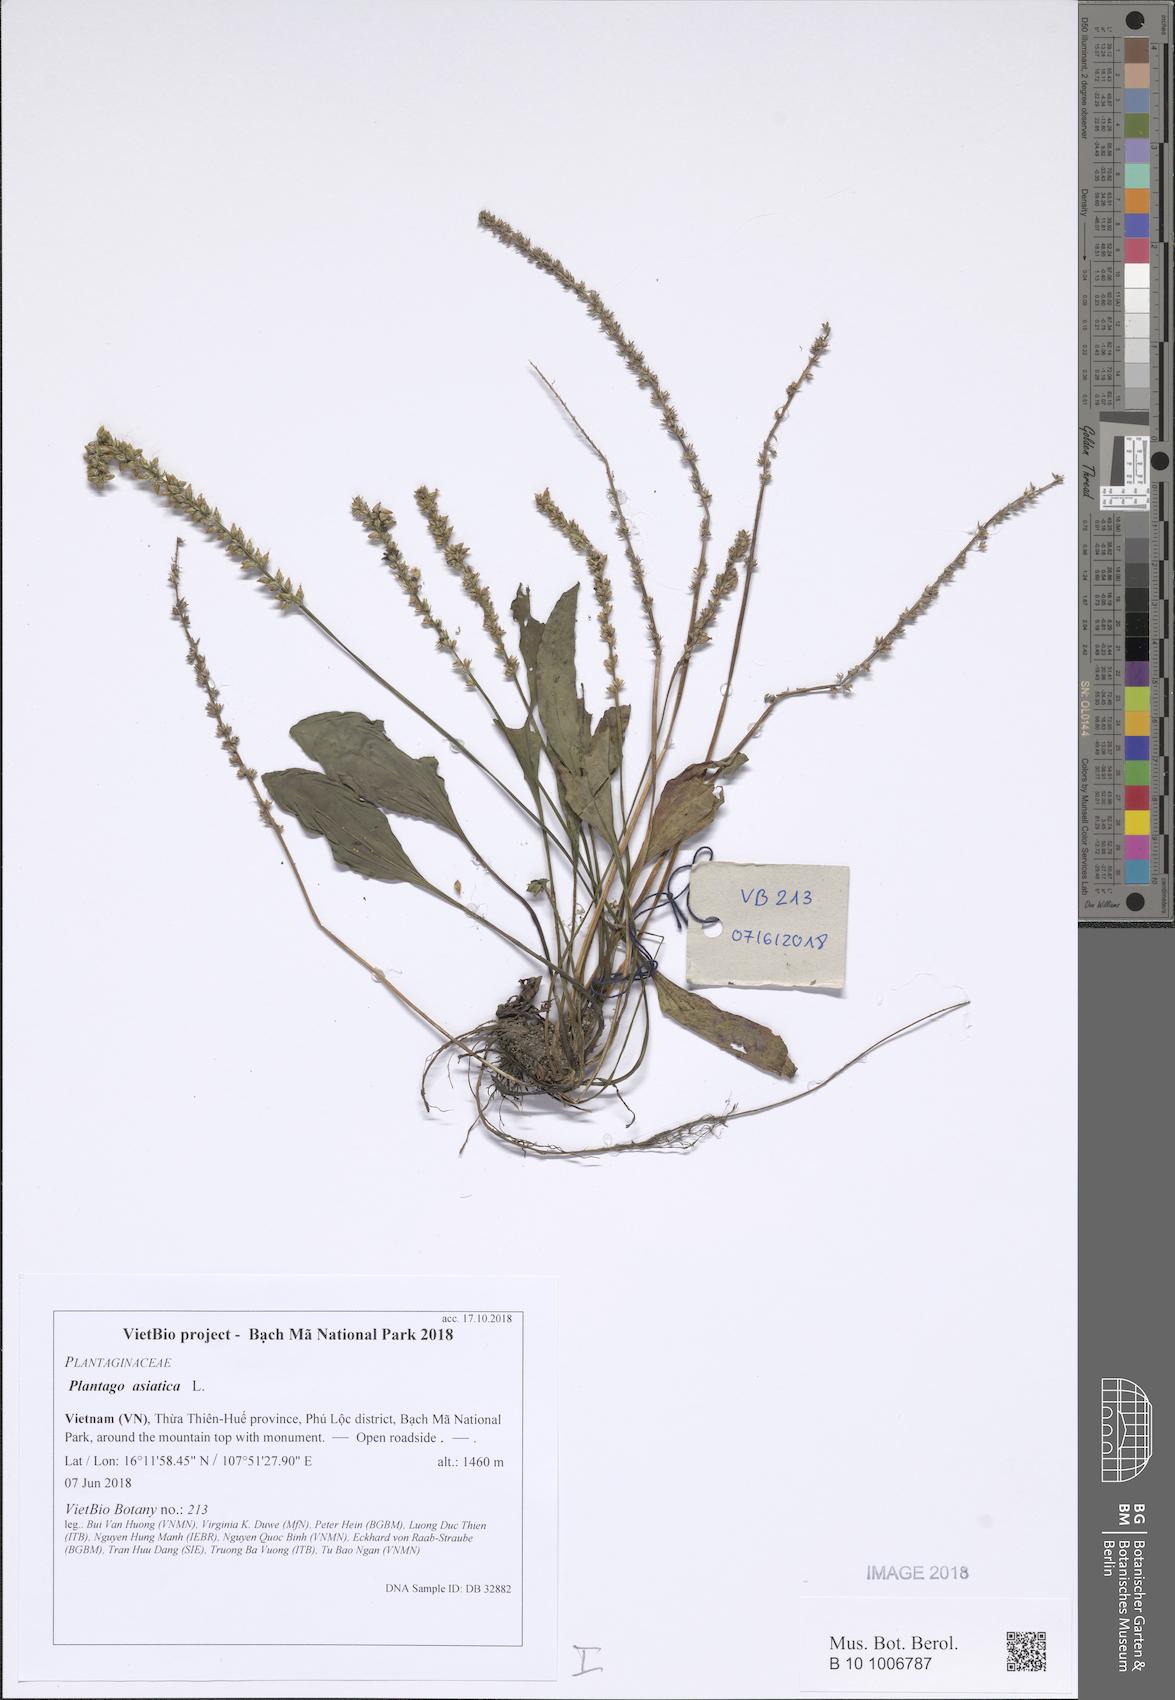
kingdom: Plantae
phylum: Tracheophyta
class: Magnoliopsida
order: Lamiales
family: Plantaginaceae
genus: Plantago
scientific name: Plantago asiatica
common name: Psyllium
